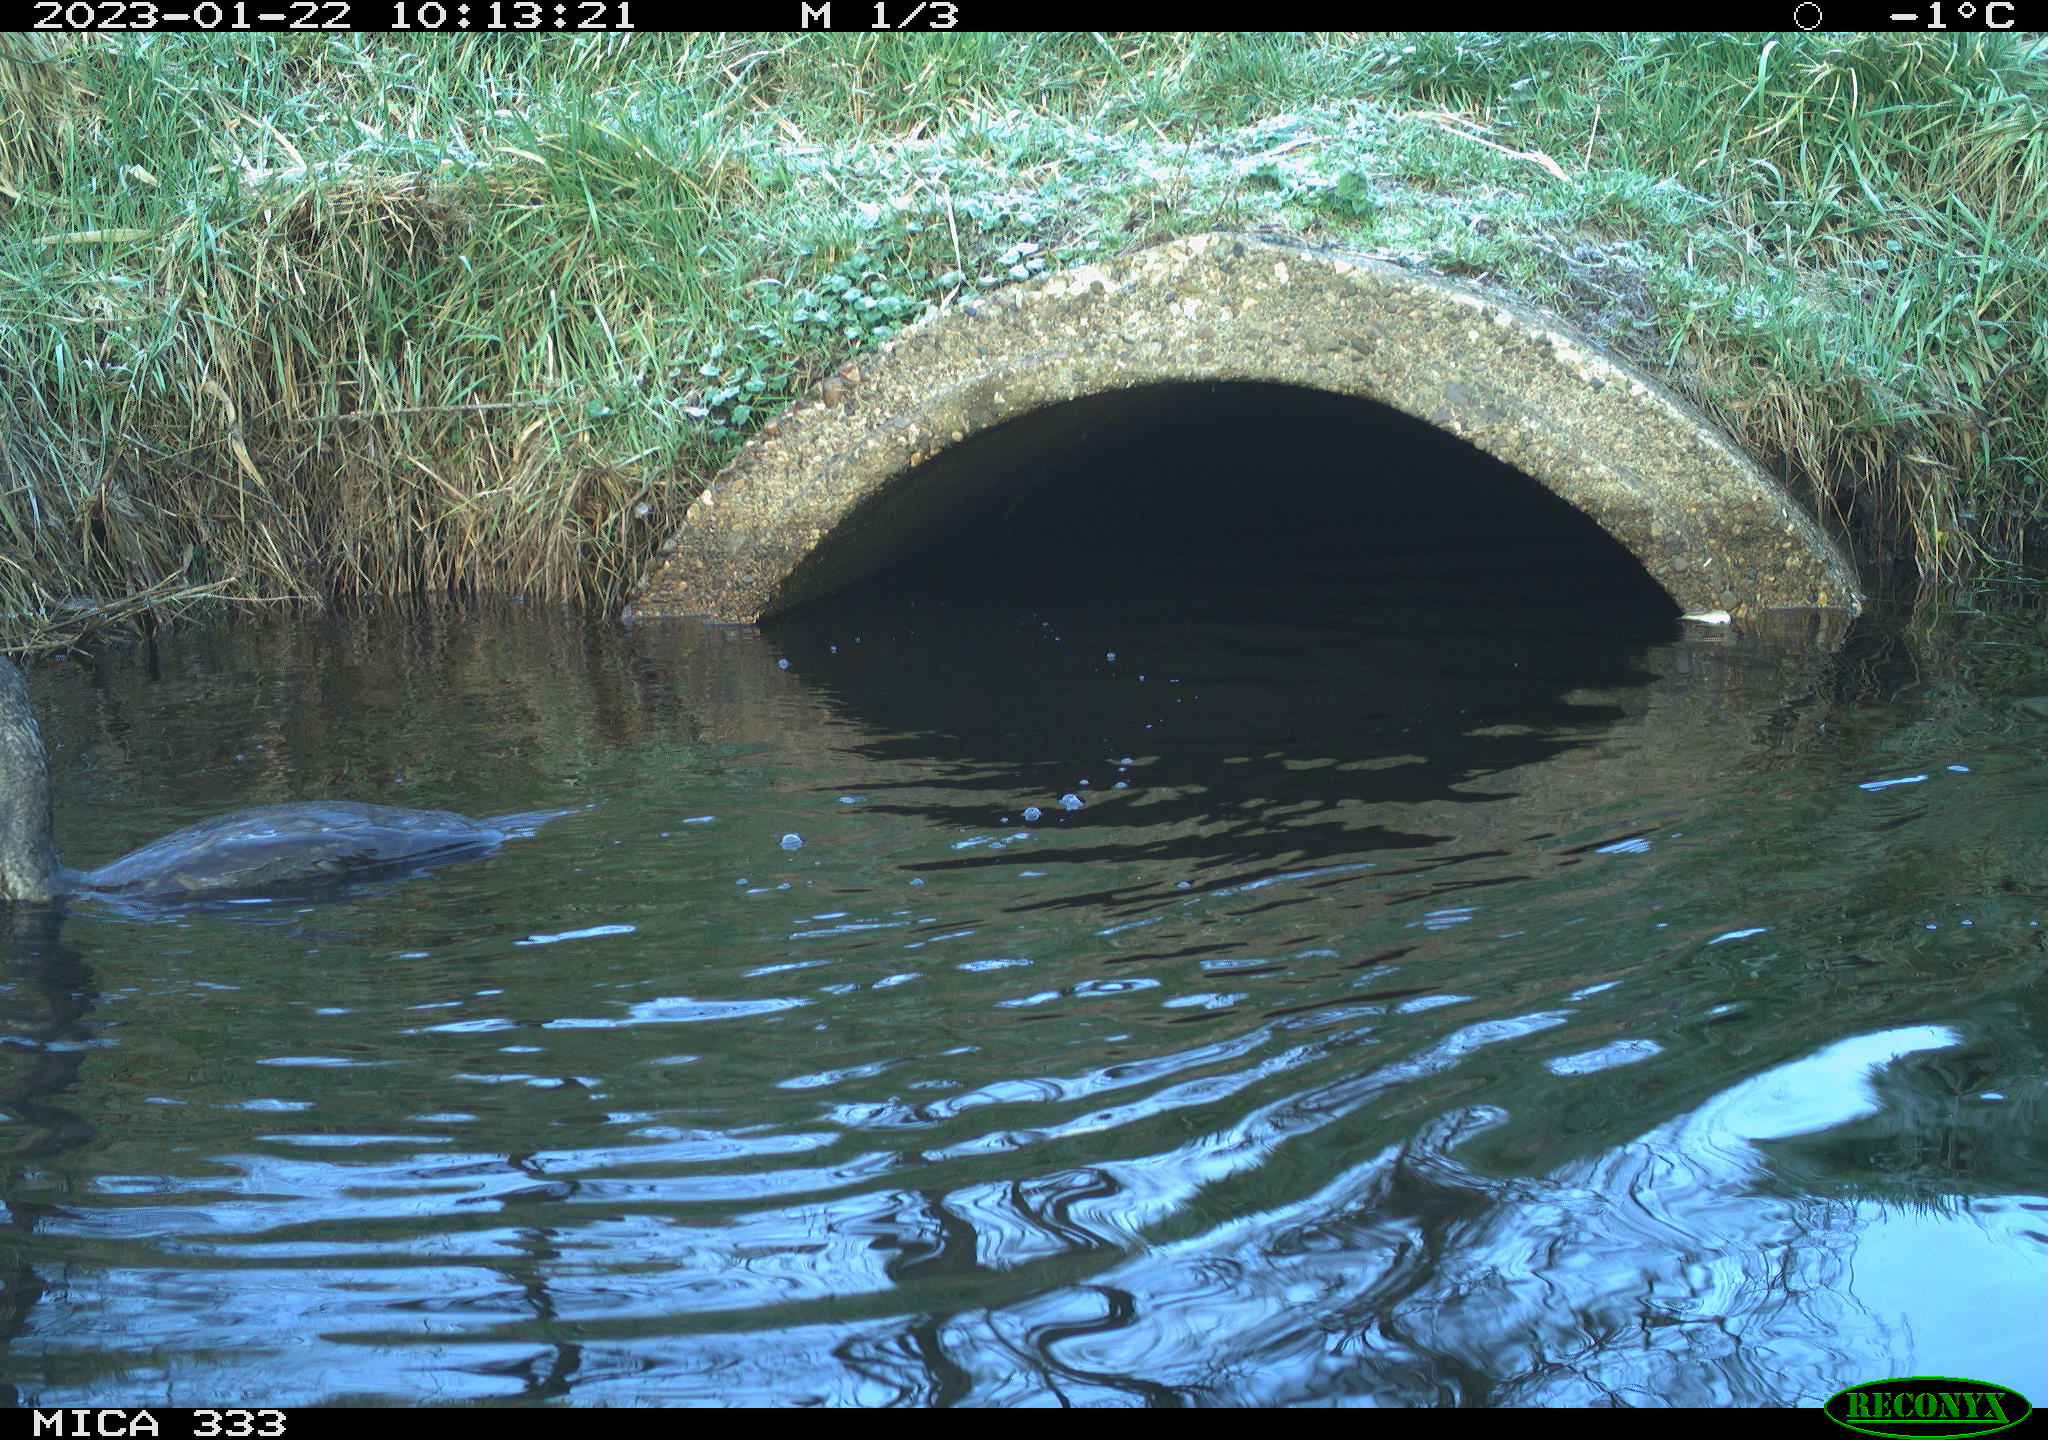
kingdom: Animalia
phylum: Chordata
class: Aves
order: Suliformes
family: Phalacrocoracidae
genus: Phalacrocorax
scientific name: Phalacrocorax carbo
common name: Great cormorant
